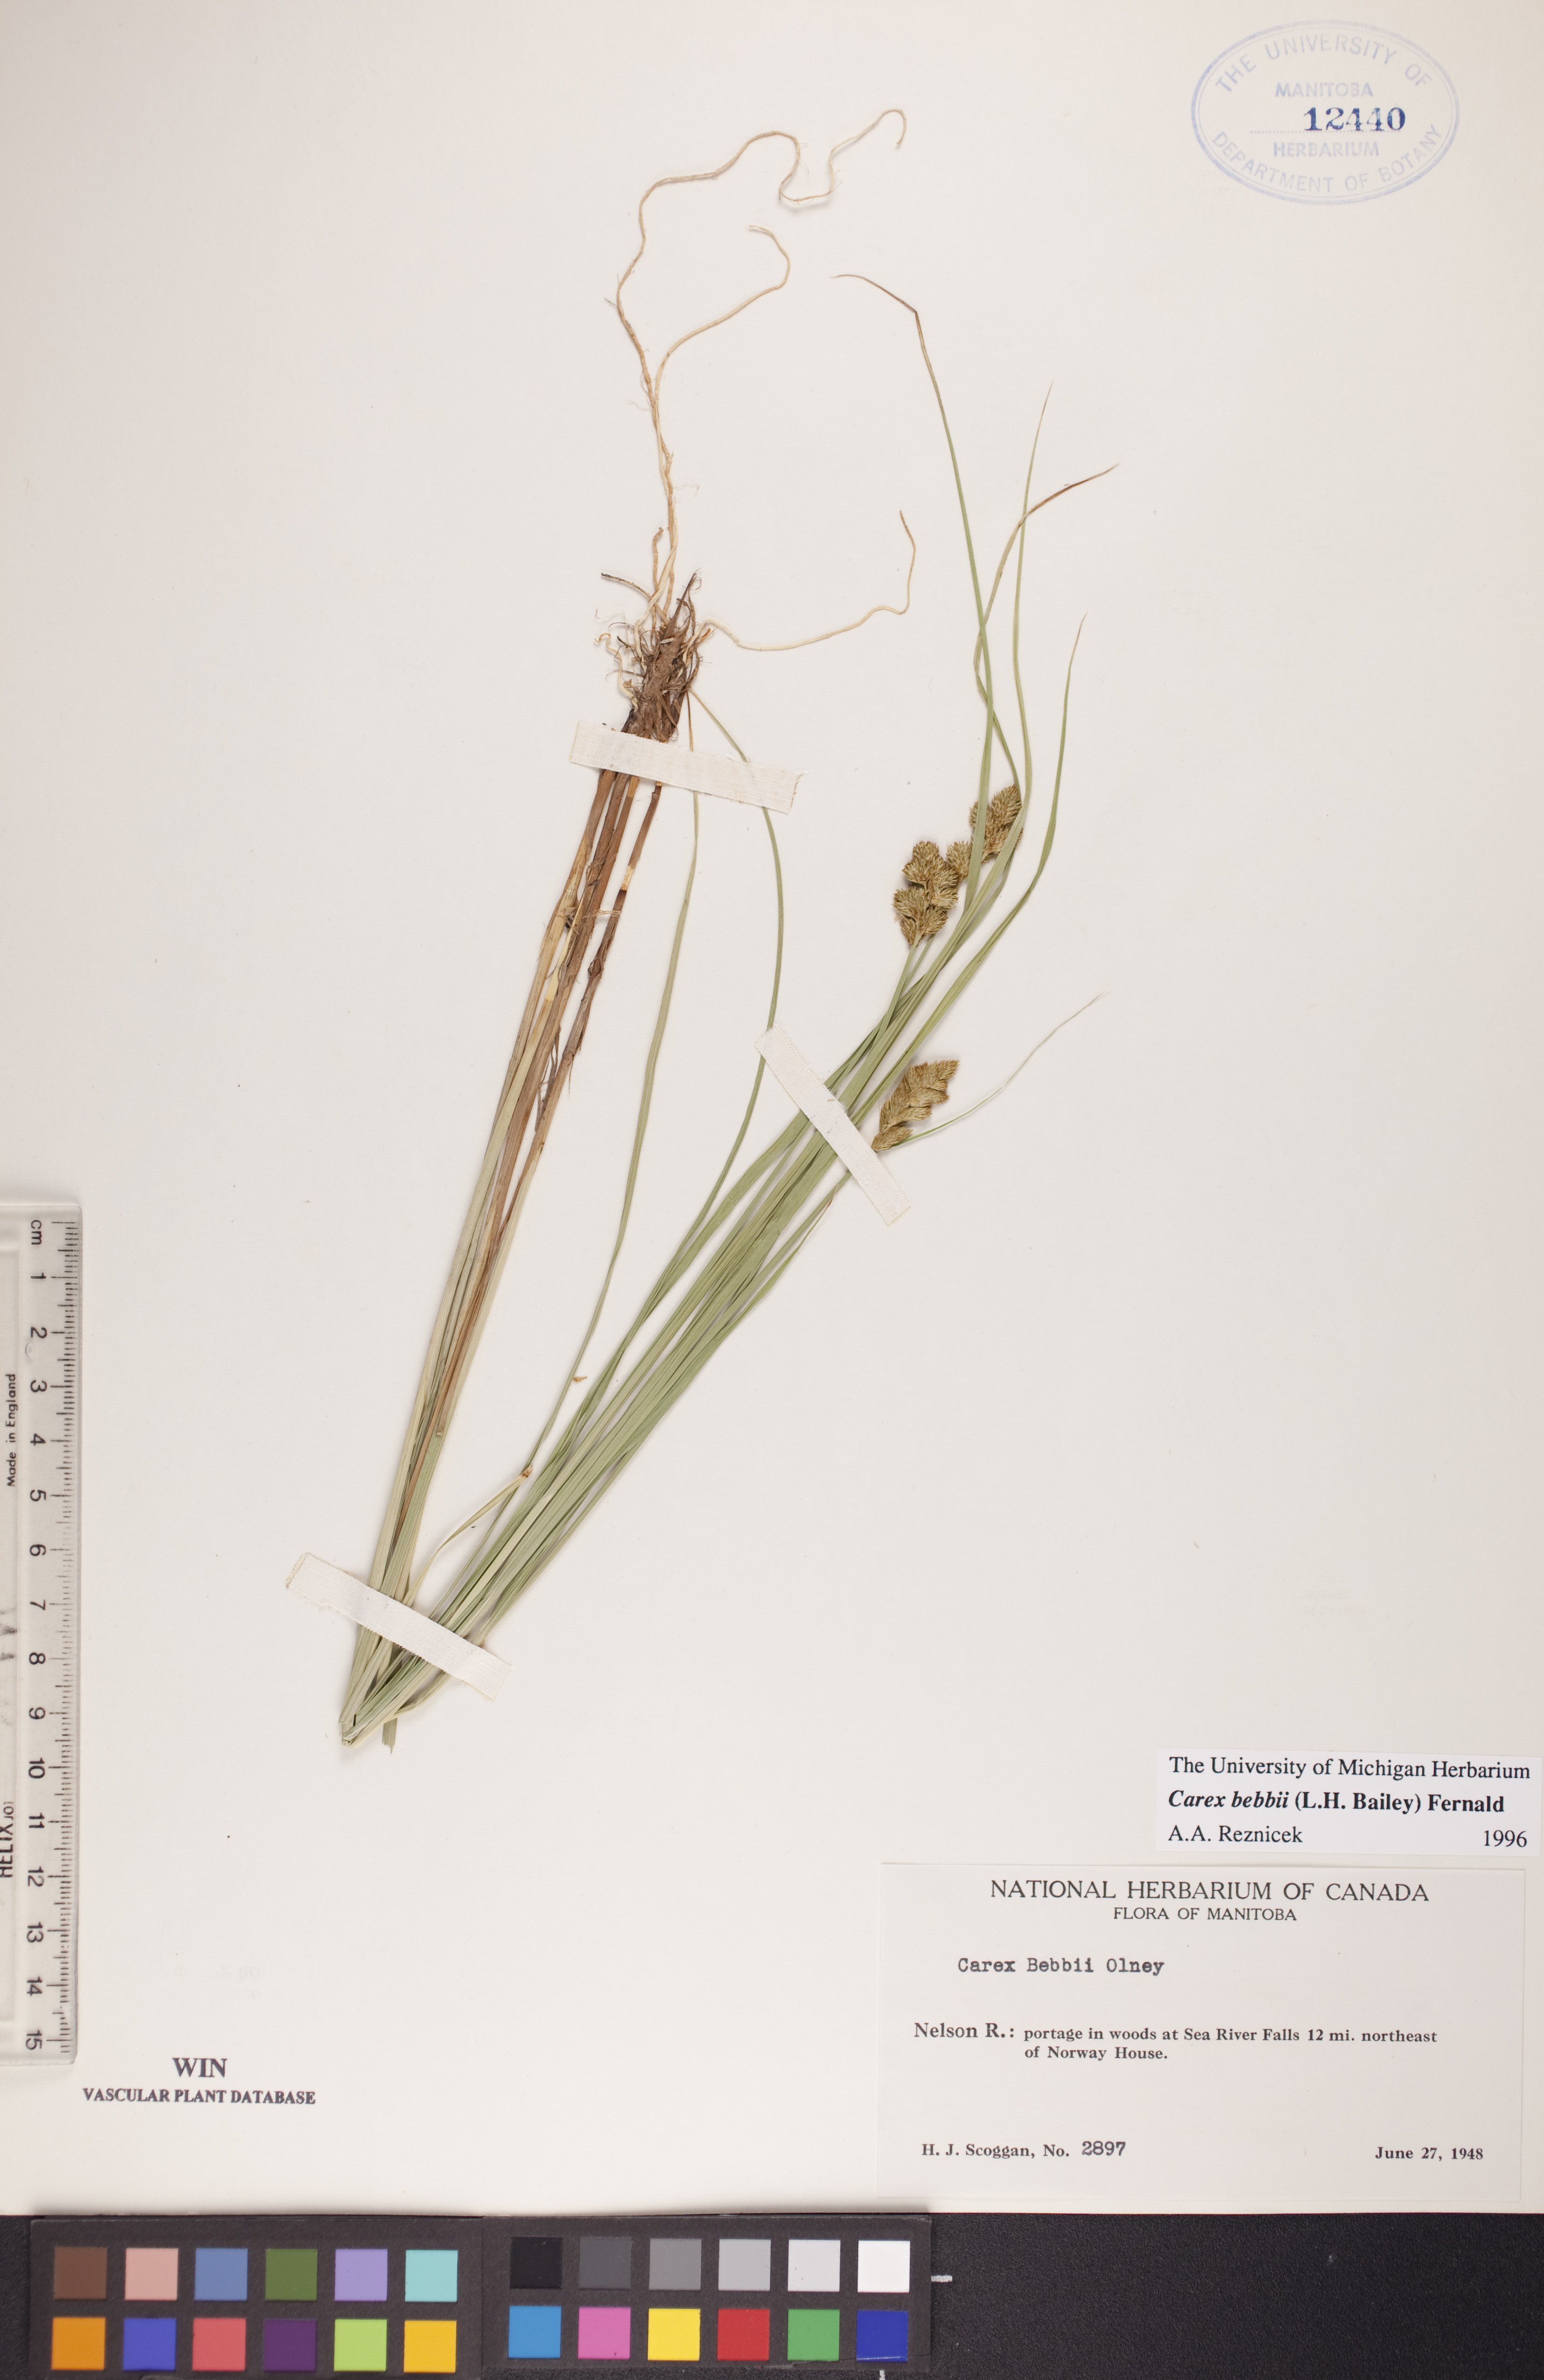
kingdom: Plantae
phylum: Tracheophyta
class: Liliopsida
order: Poales
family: Cyperaceae
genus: Carex
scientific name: Carex bebbii
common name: Bebb's sedge
